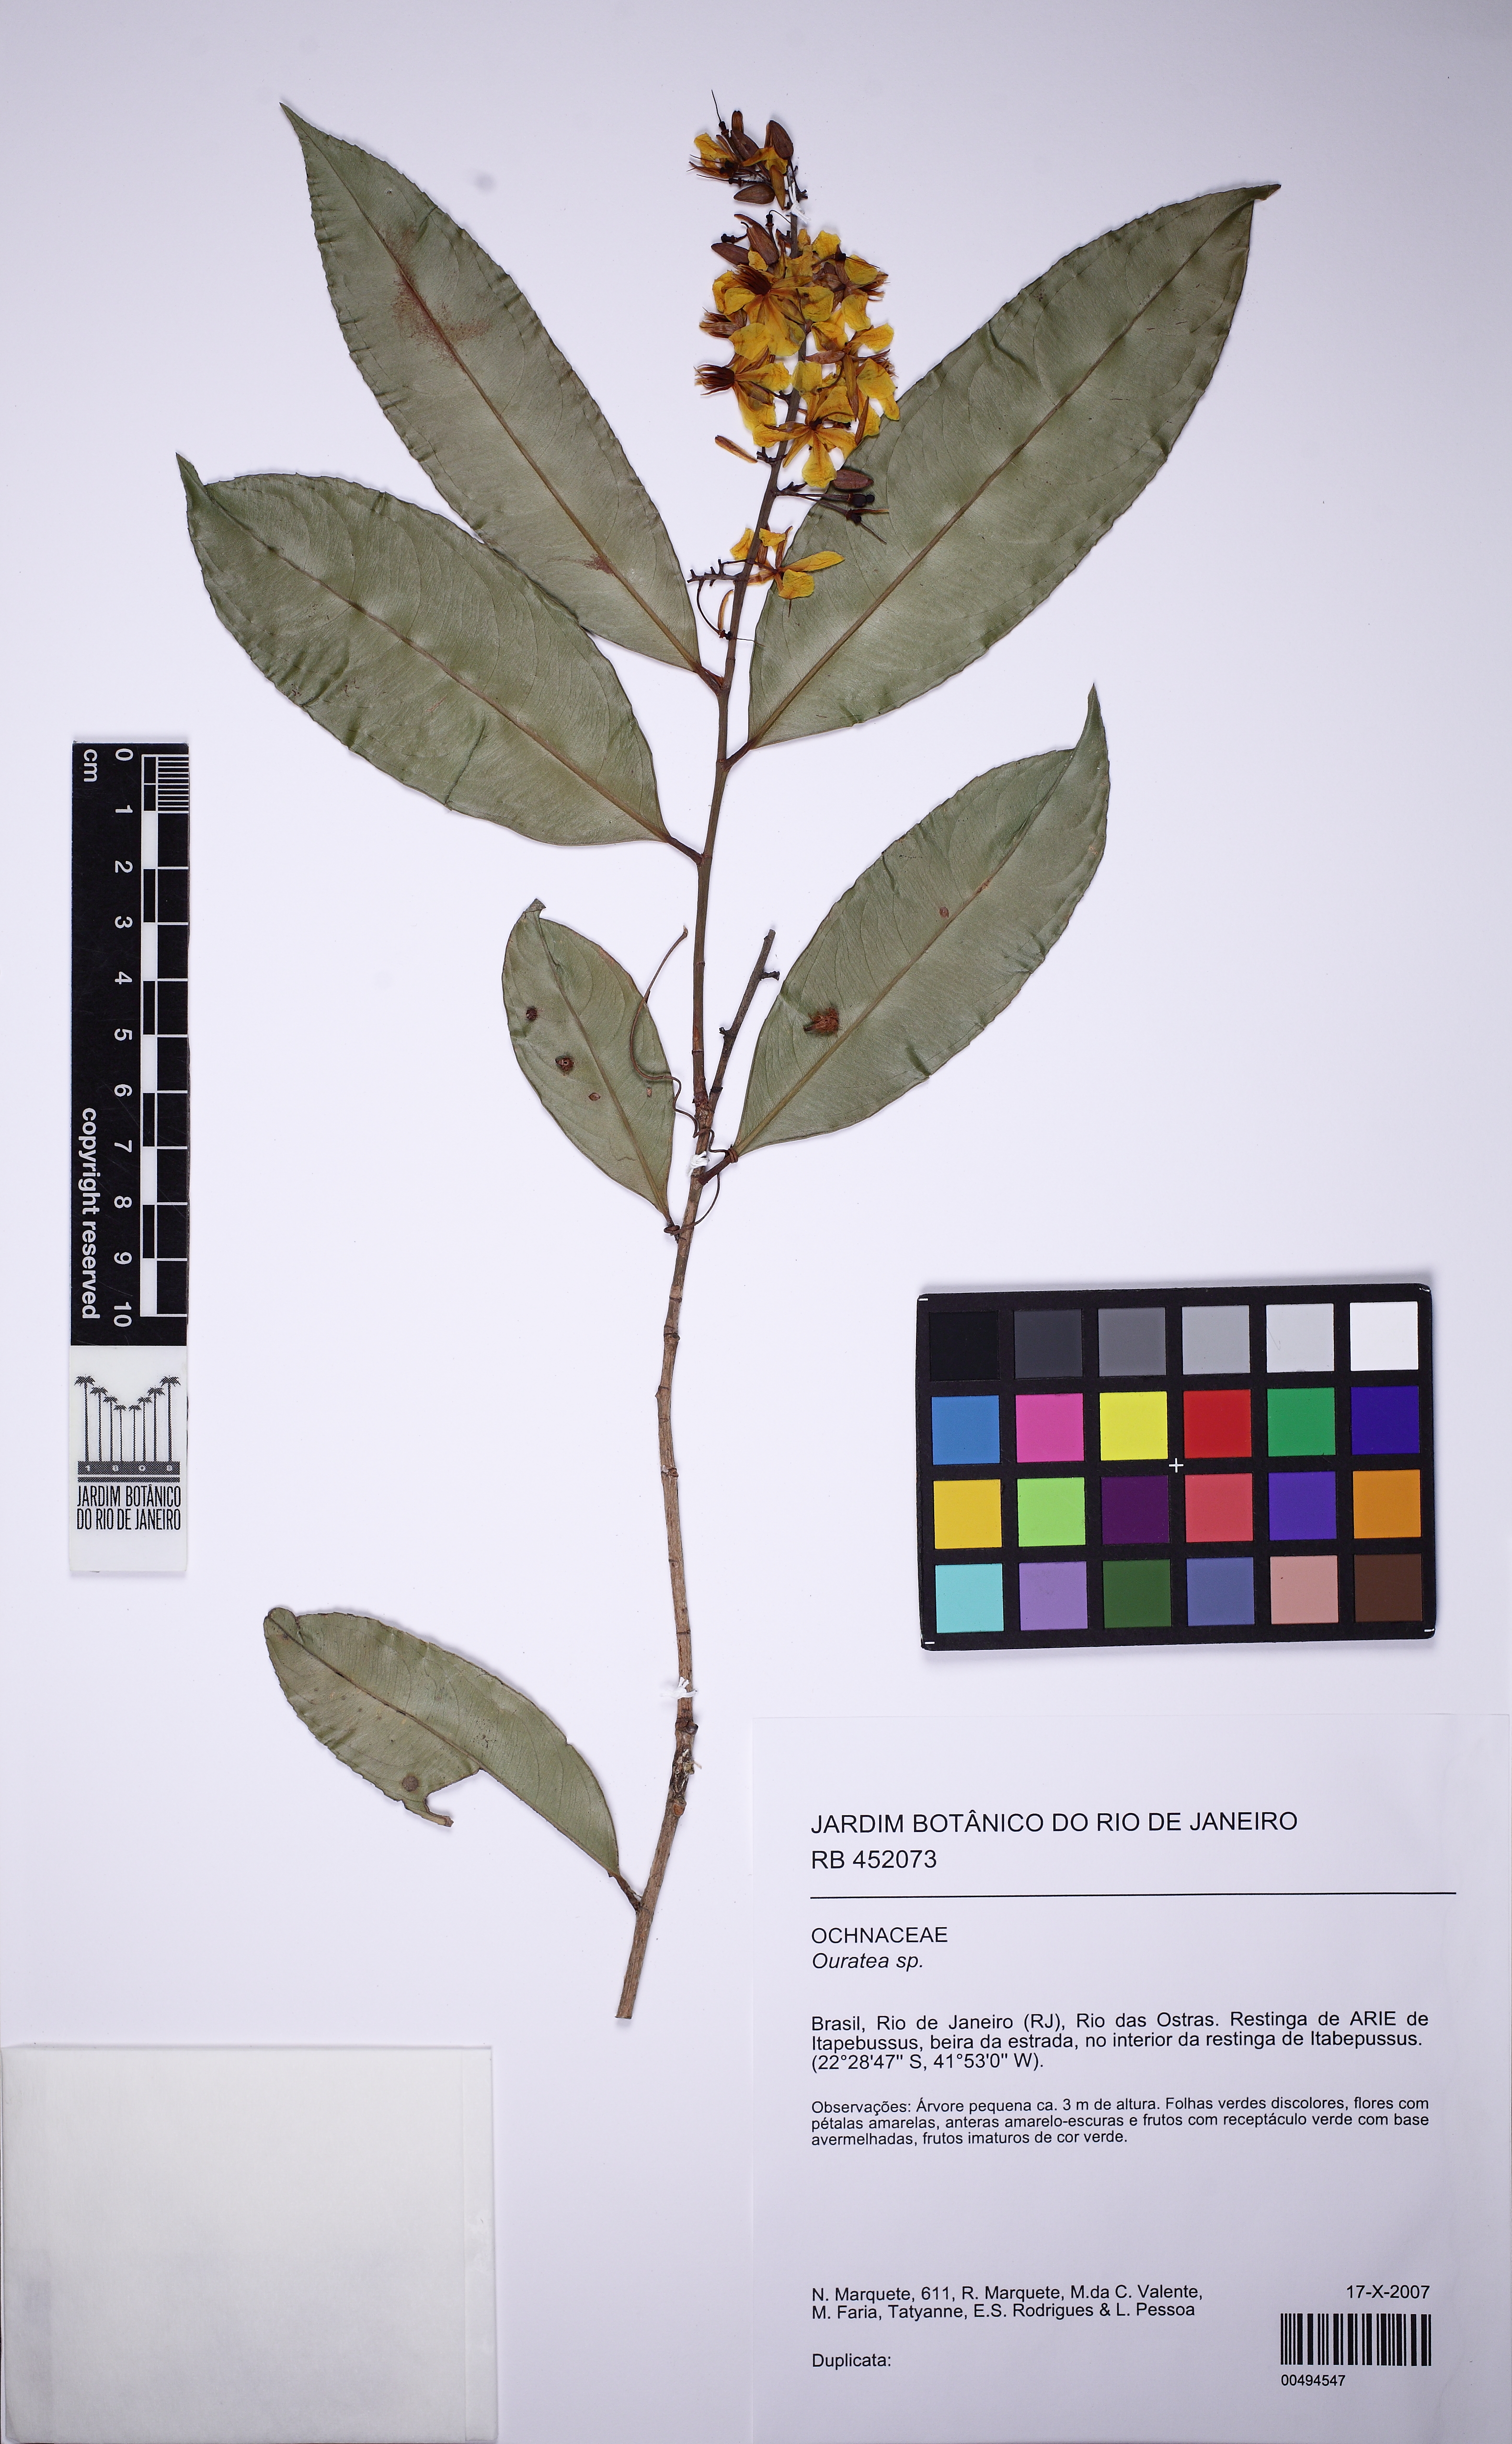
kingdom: Plantae
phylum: Tracheophyta
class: Magnoliopsida
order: Malpighiales
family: Ochnaceae
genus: Ouratea
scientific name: Ouratea
